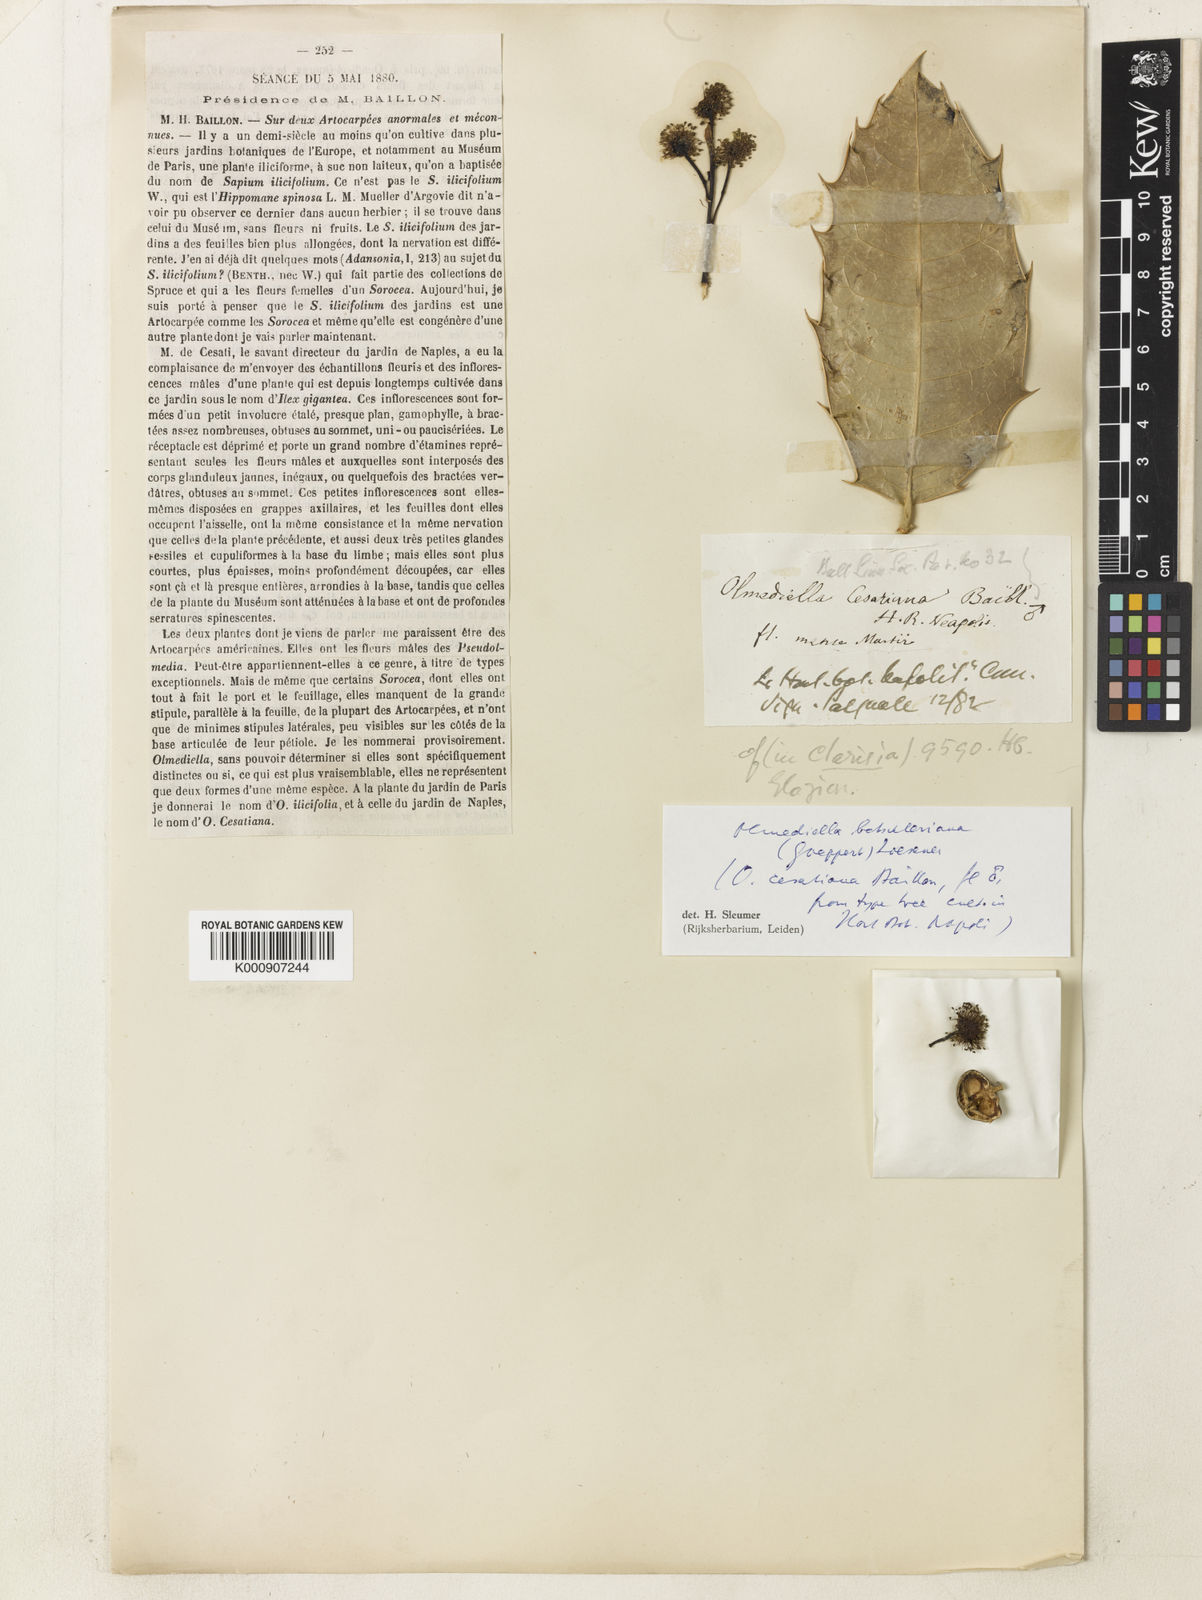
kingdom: Plantae
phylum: Tracheophyta
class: Magnoliopsida
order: Malpighiales
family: Salicaceae
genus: Olmediella
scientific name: Olmediella
